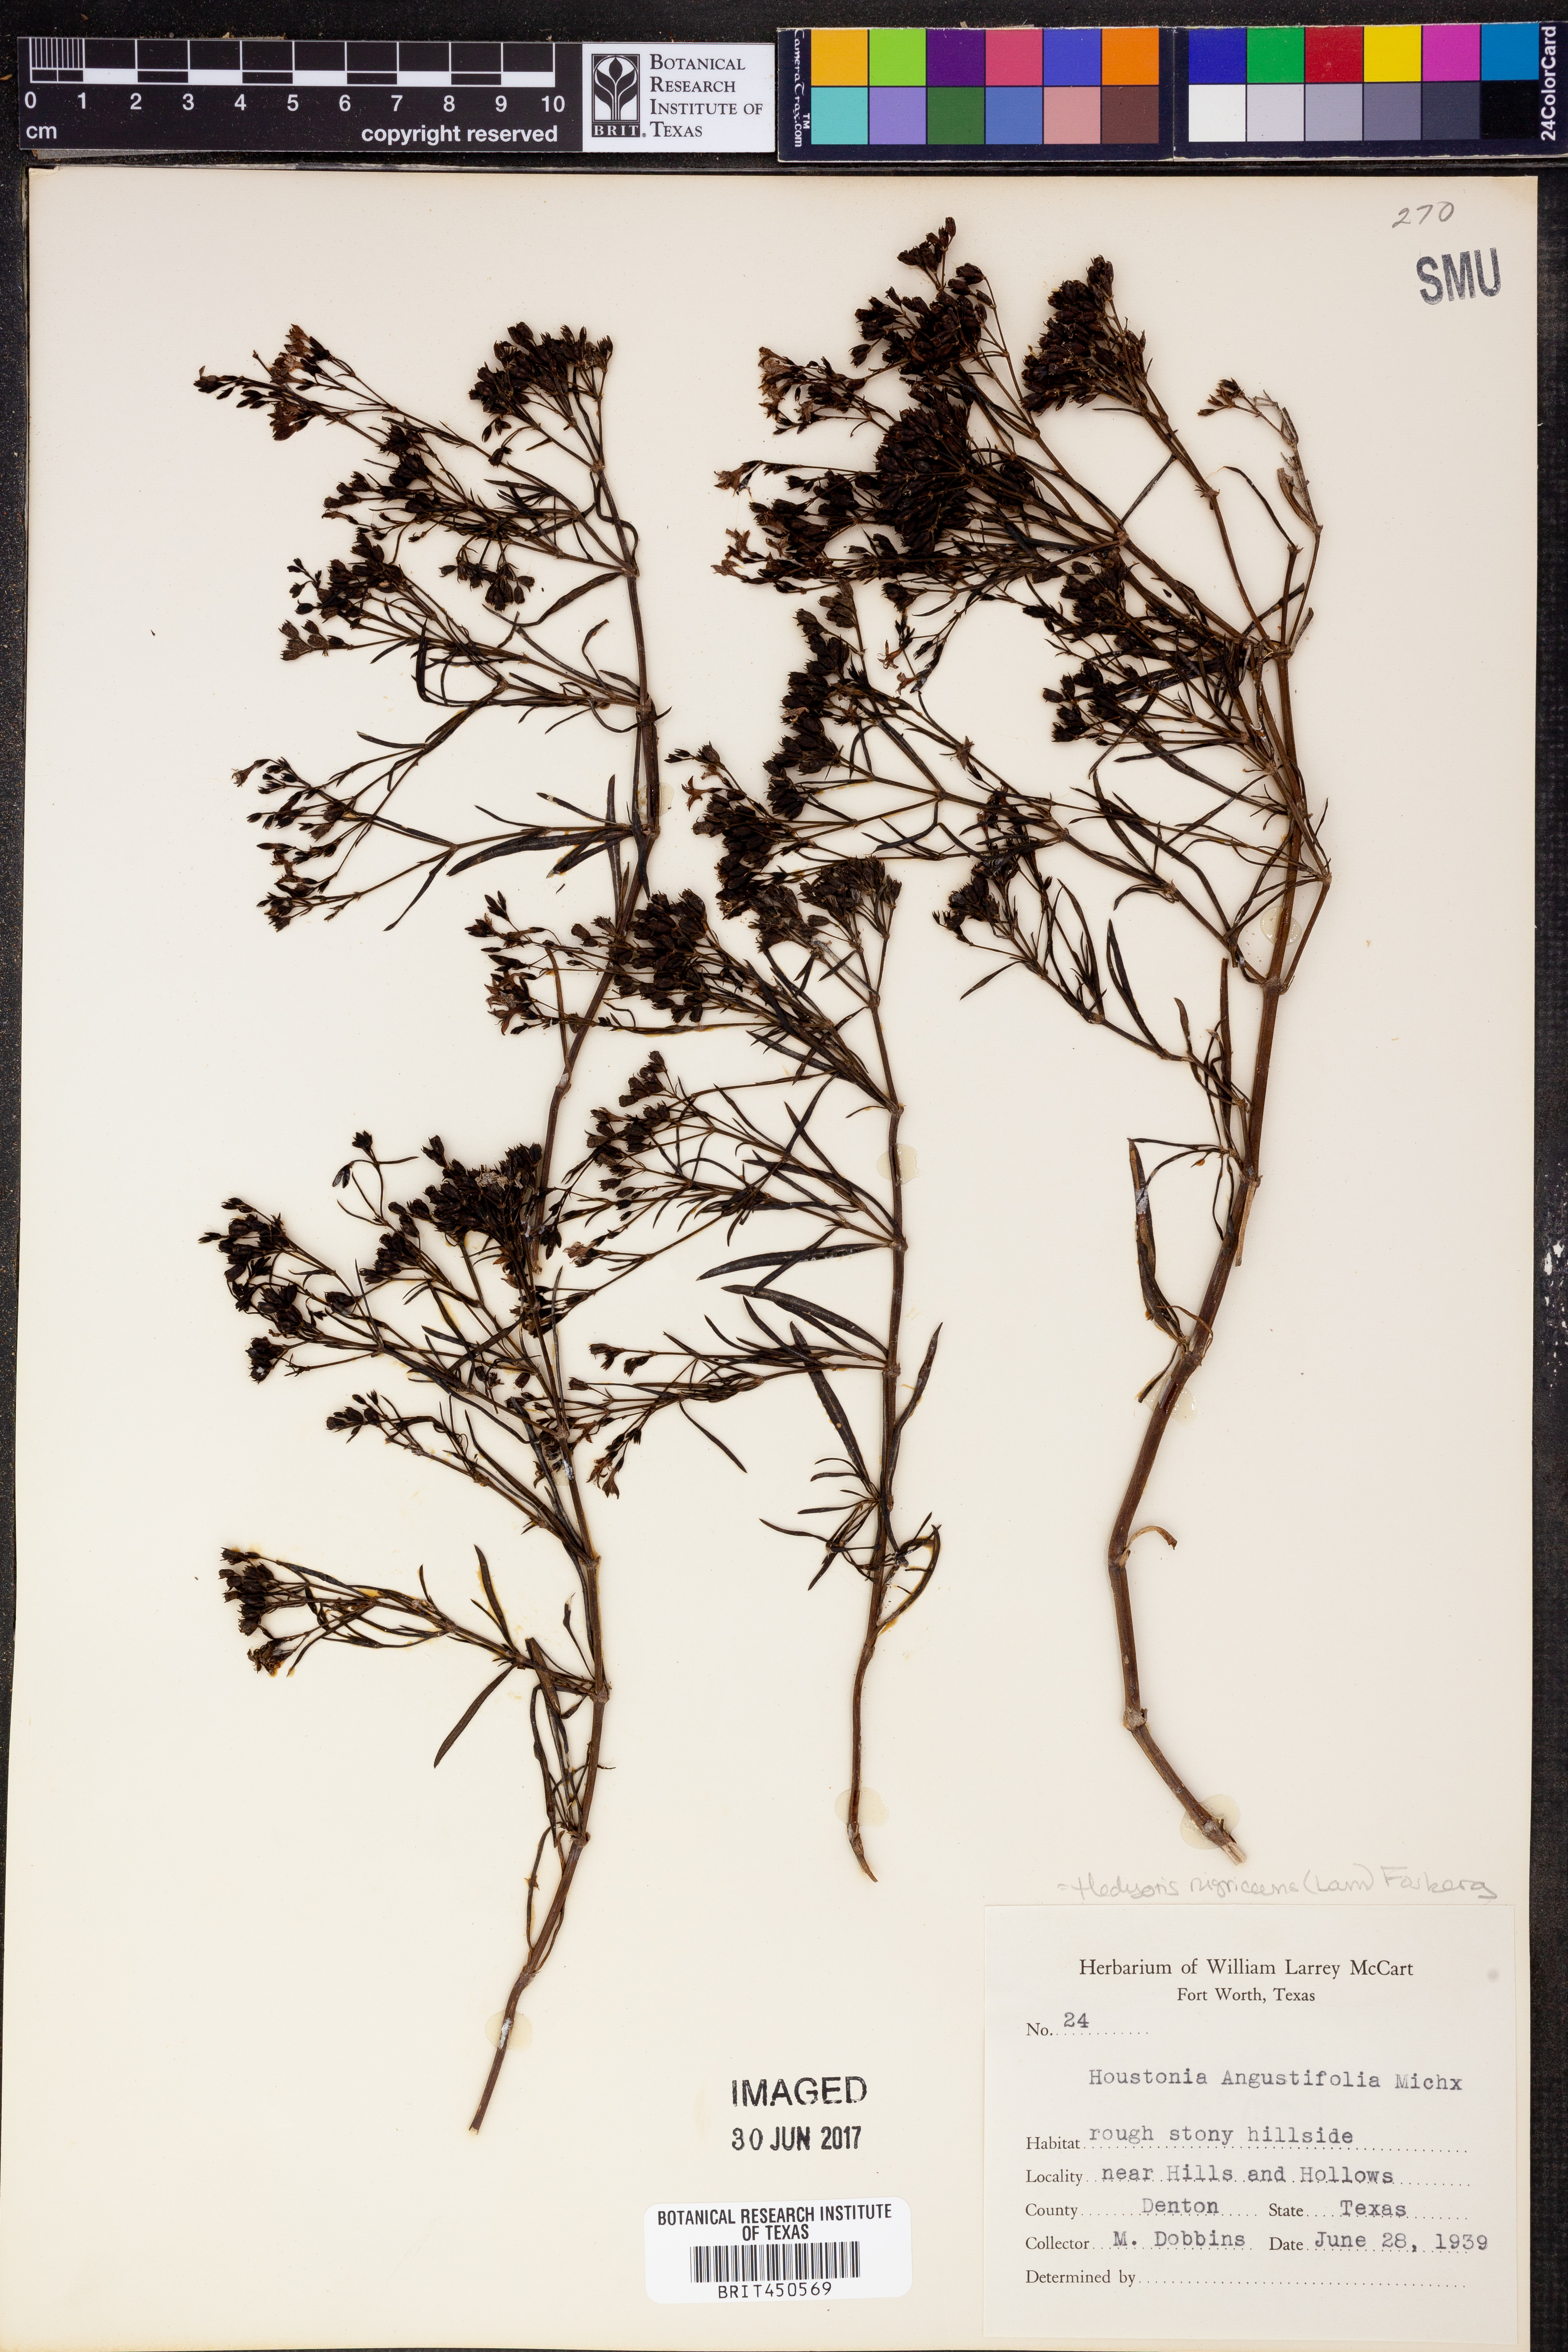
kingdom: Plantae
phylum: Tracheophyta
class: Magnoliopsida
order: Gentianales
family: Rubiaceae
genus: Stenaria
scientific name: Stenaria nigricans
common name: Diamondflowers
